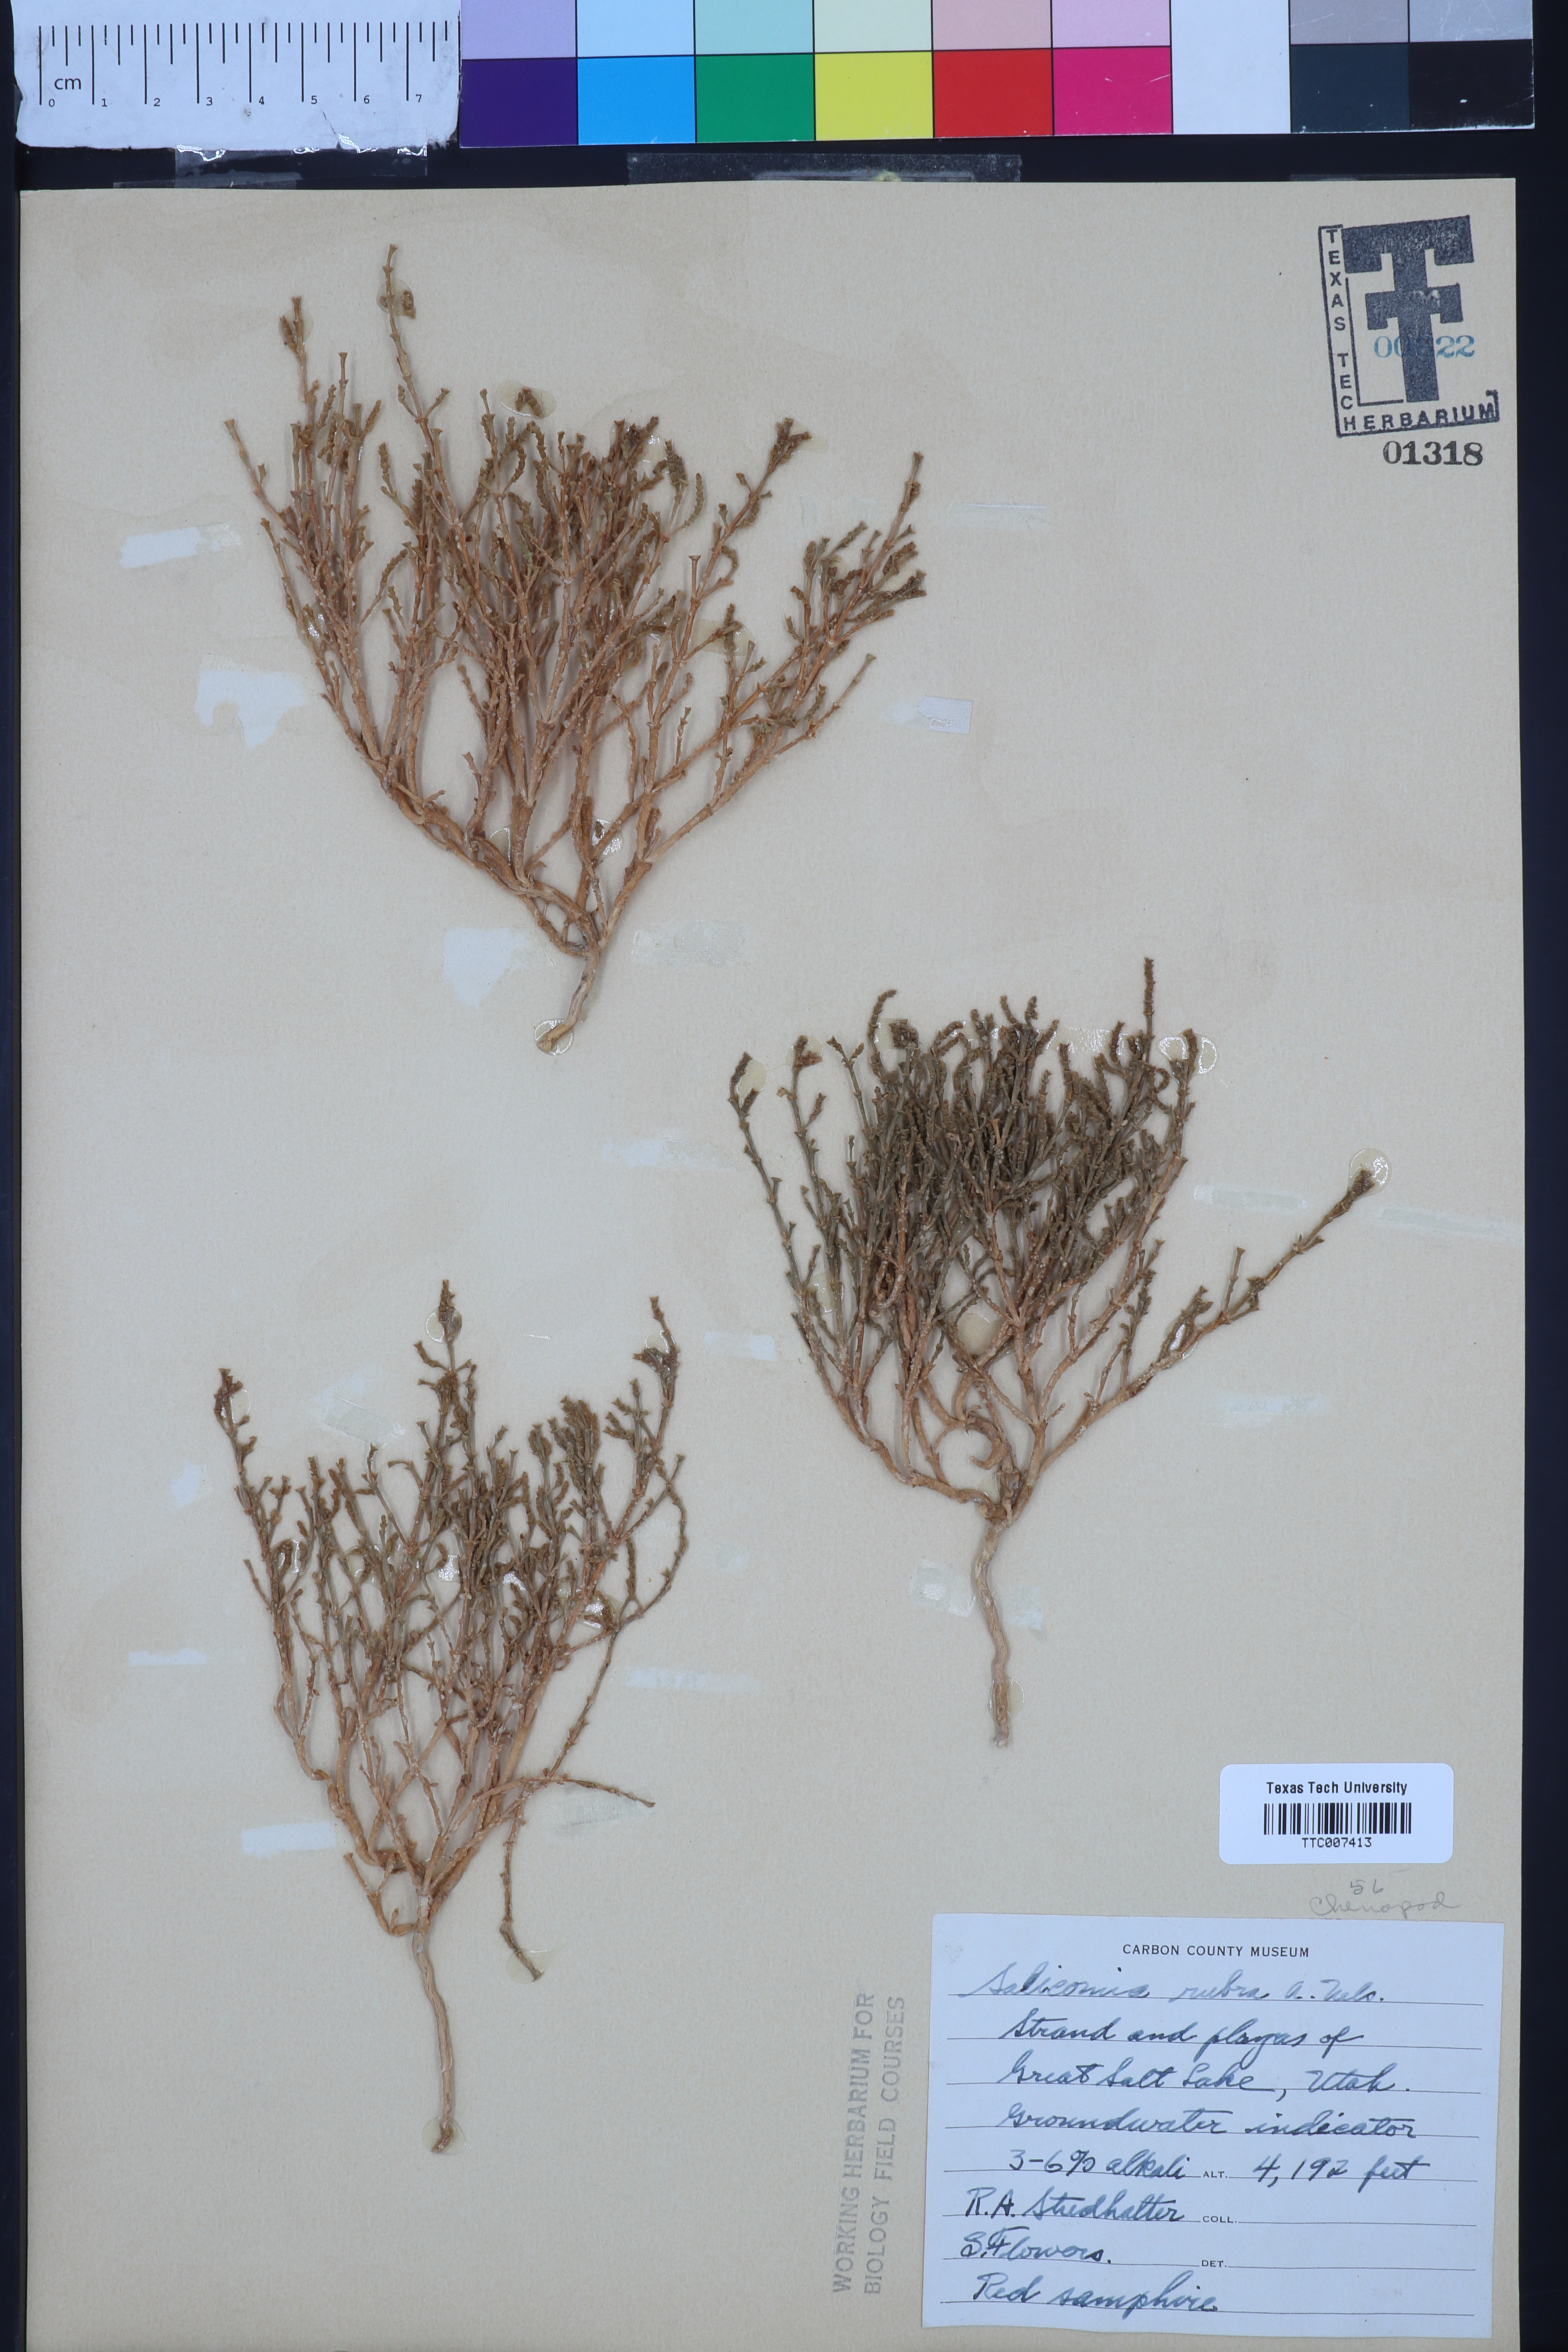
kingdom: Plantae
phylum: Tracheophyta
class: Magnoliopsida
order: Caryophyllales
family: Amaranthaceae
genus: Salicornia
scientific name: Salicornia rubra
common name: Red glasswort
